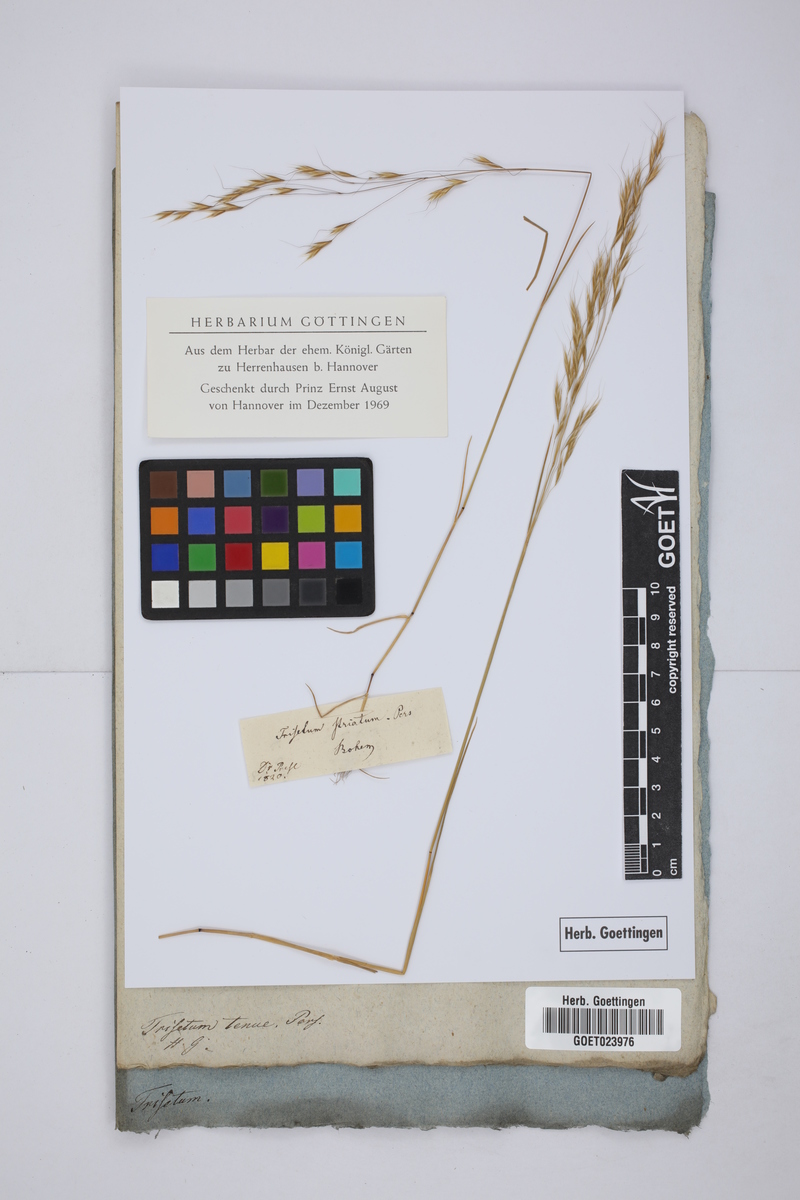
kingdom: Plantae
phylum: Tracheophyta
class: Liliopsida
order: Poales
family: Poaceae
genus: Helictotrichon
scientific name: Helictotrichon sempervirens
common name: Blue oat-grass
